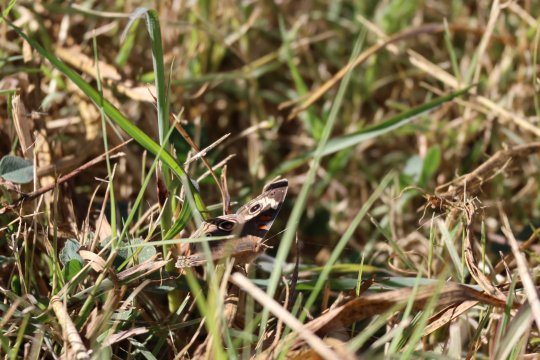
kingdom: Animalia
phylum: Arthropoda
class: Insecta
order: Lepidoptera
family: Nymphalidae
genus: Junonia
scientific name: Junonia coenia
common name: Common Buckeye
